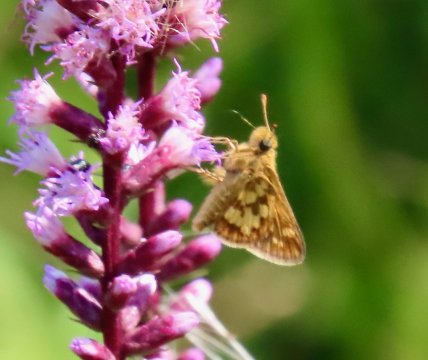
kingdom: Animalia
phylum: Arthropoda
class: Insecta
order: Lepidoptera
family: Hesperiidae
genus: Polites
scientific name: Polites coras
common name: Peck's Skipper
